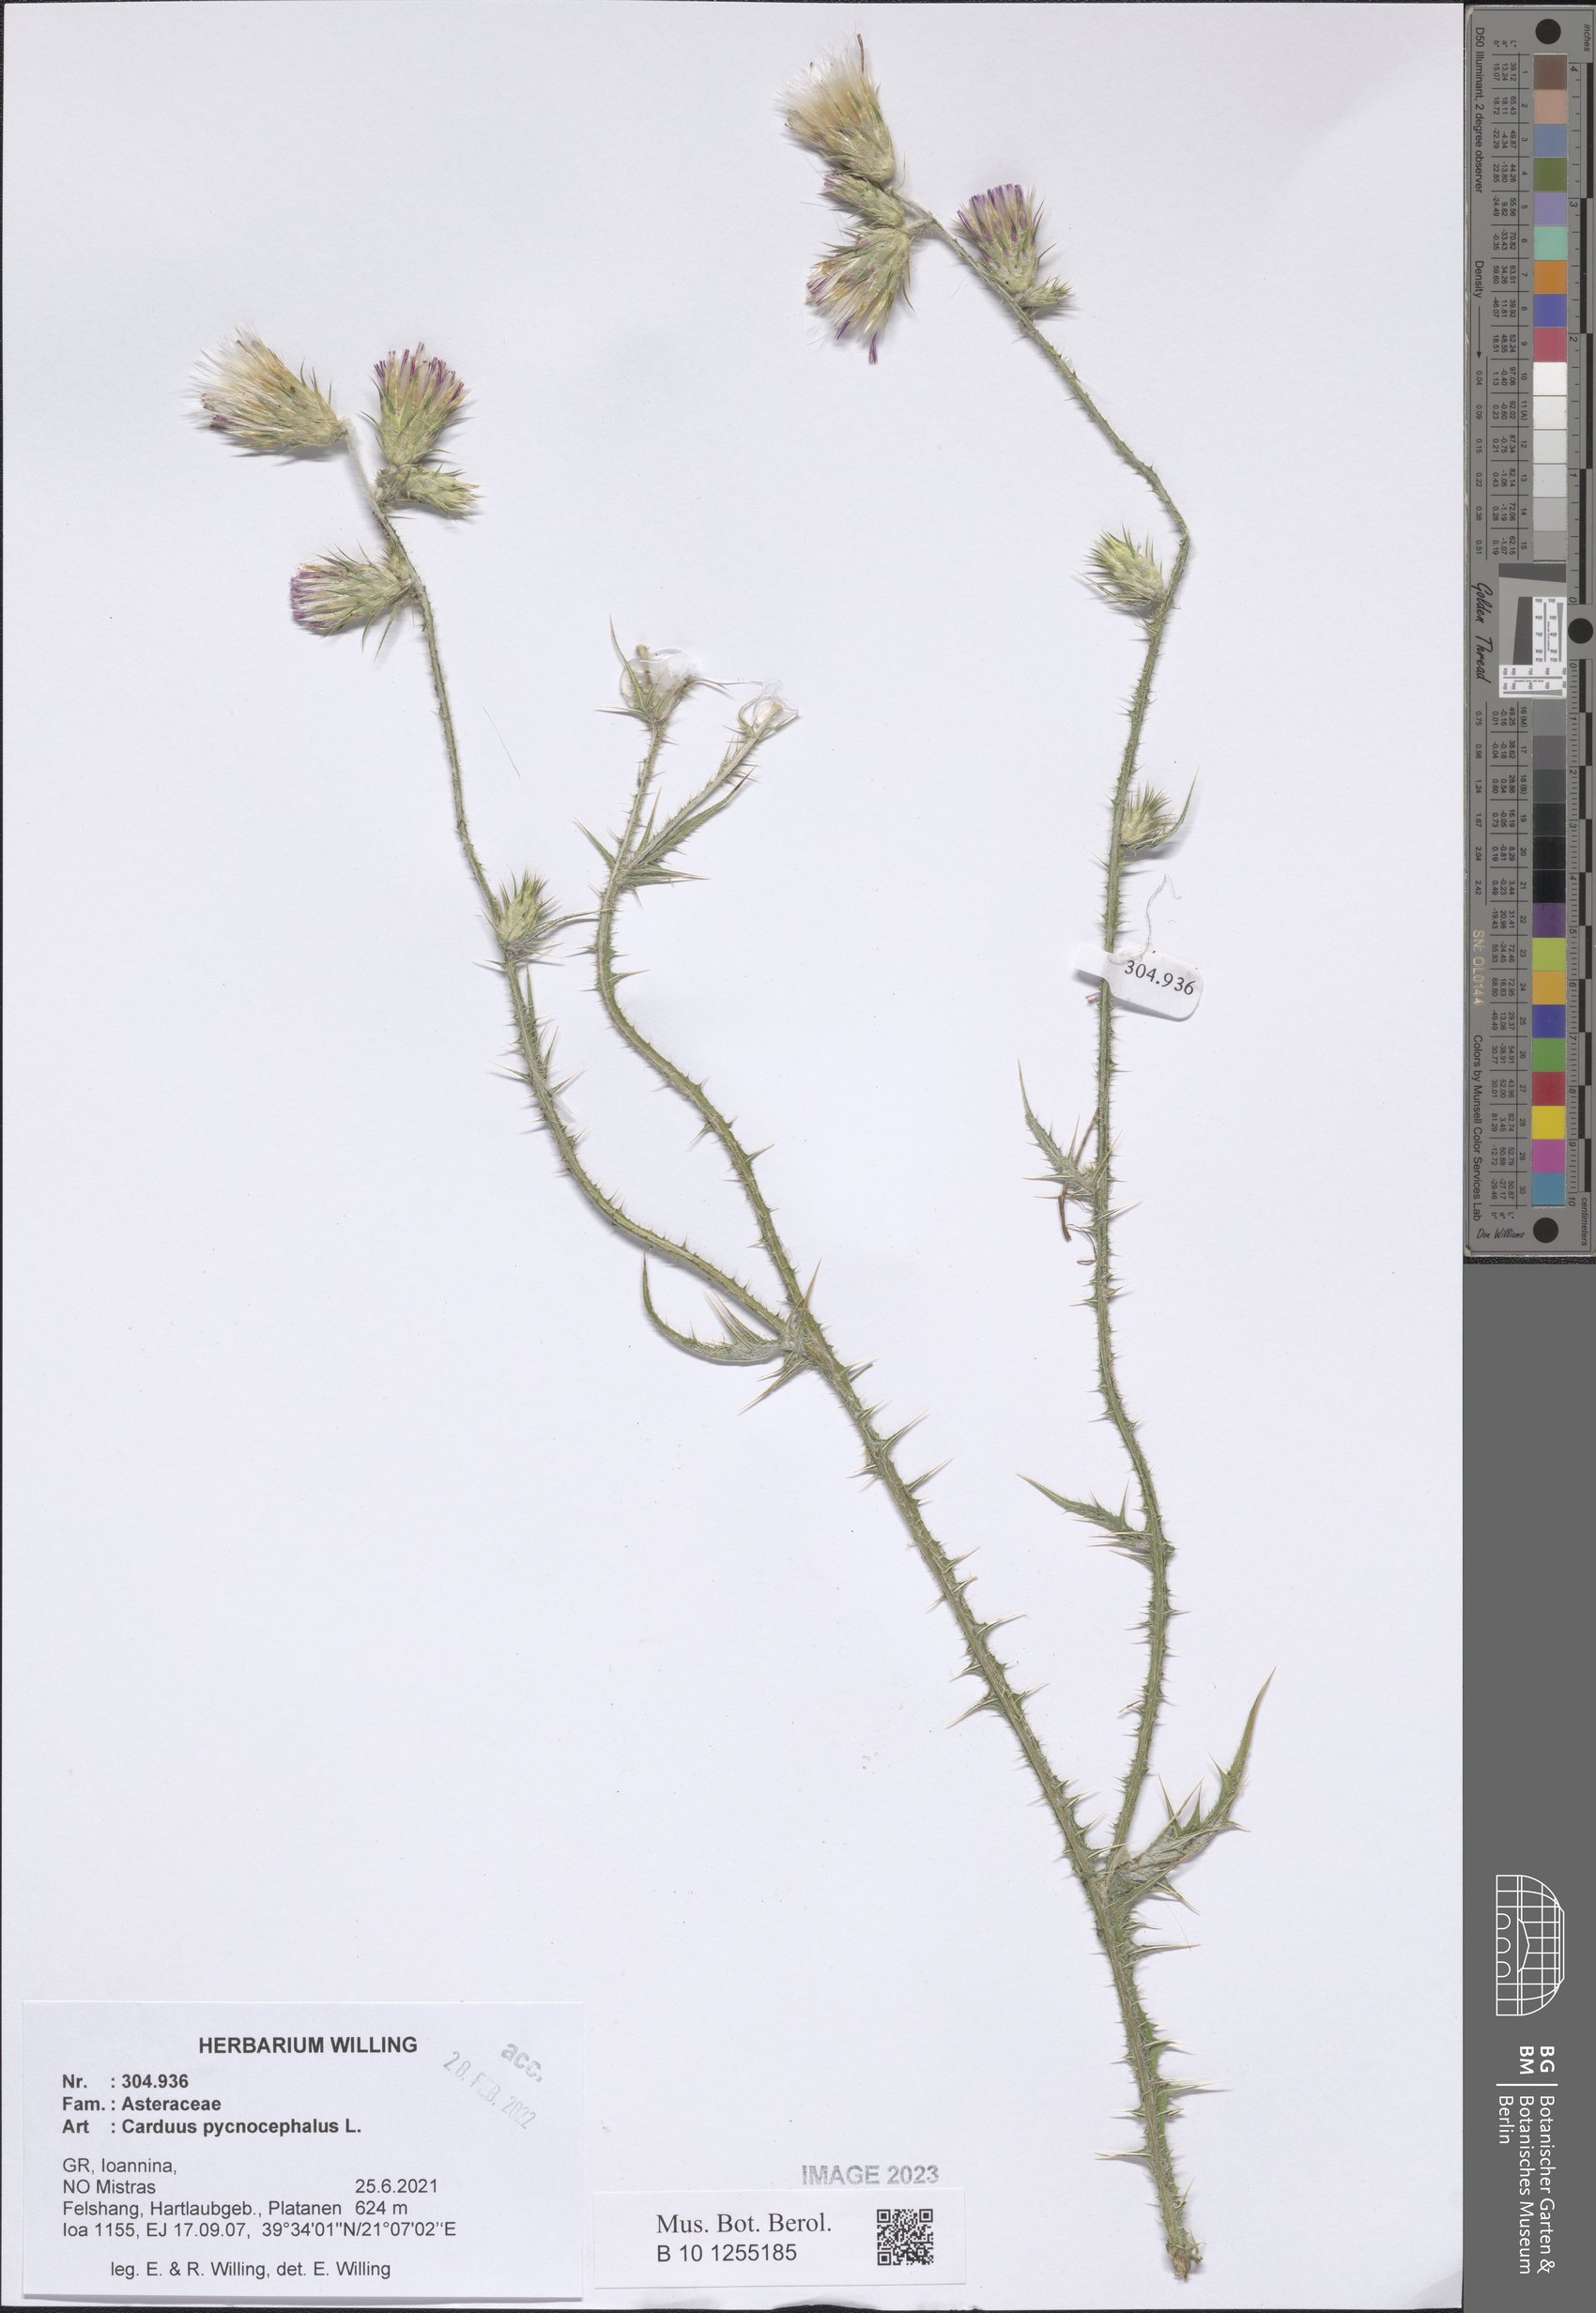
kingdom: Plantae
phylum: Tracheophyta
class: Magnoliopsida
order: Asterales
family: Asteraceae
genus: Carduus
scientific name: Carduus pycnocephalus
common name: Plymouth thistle
